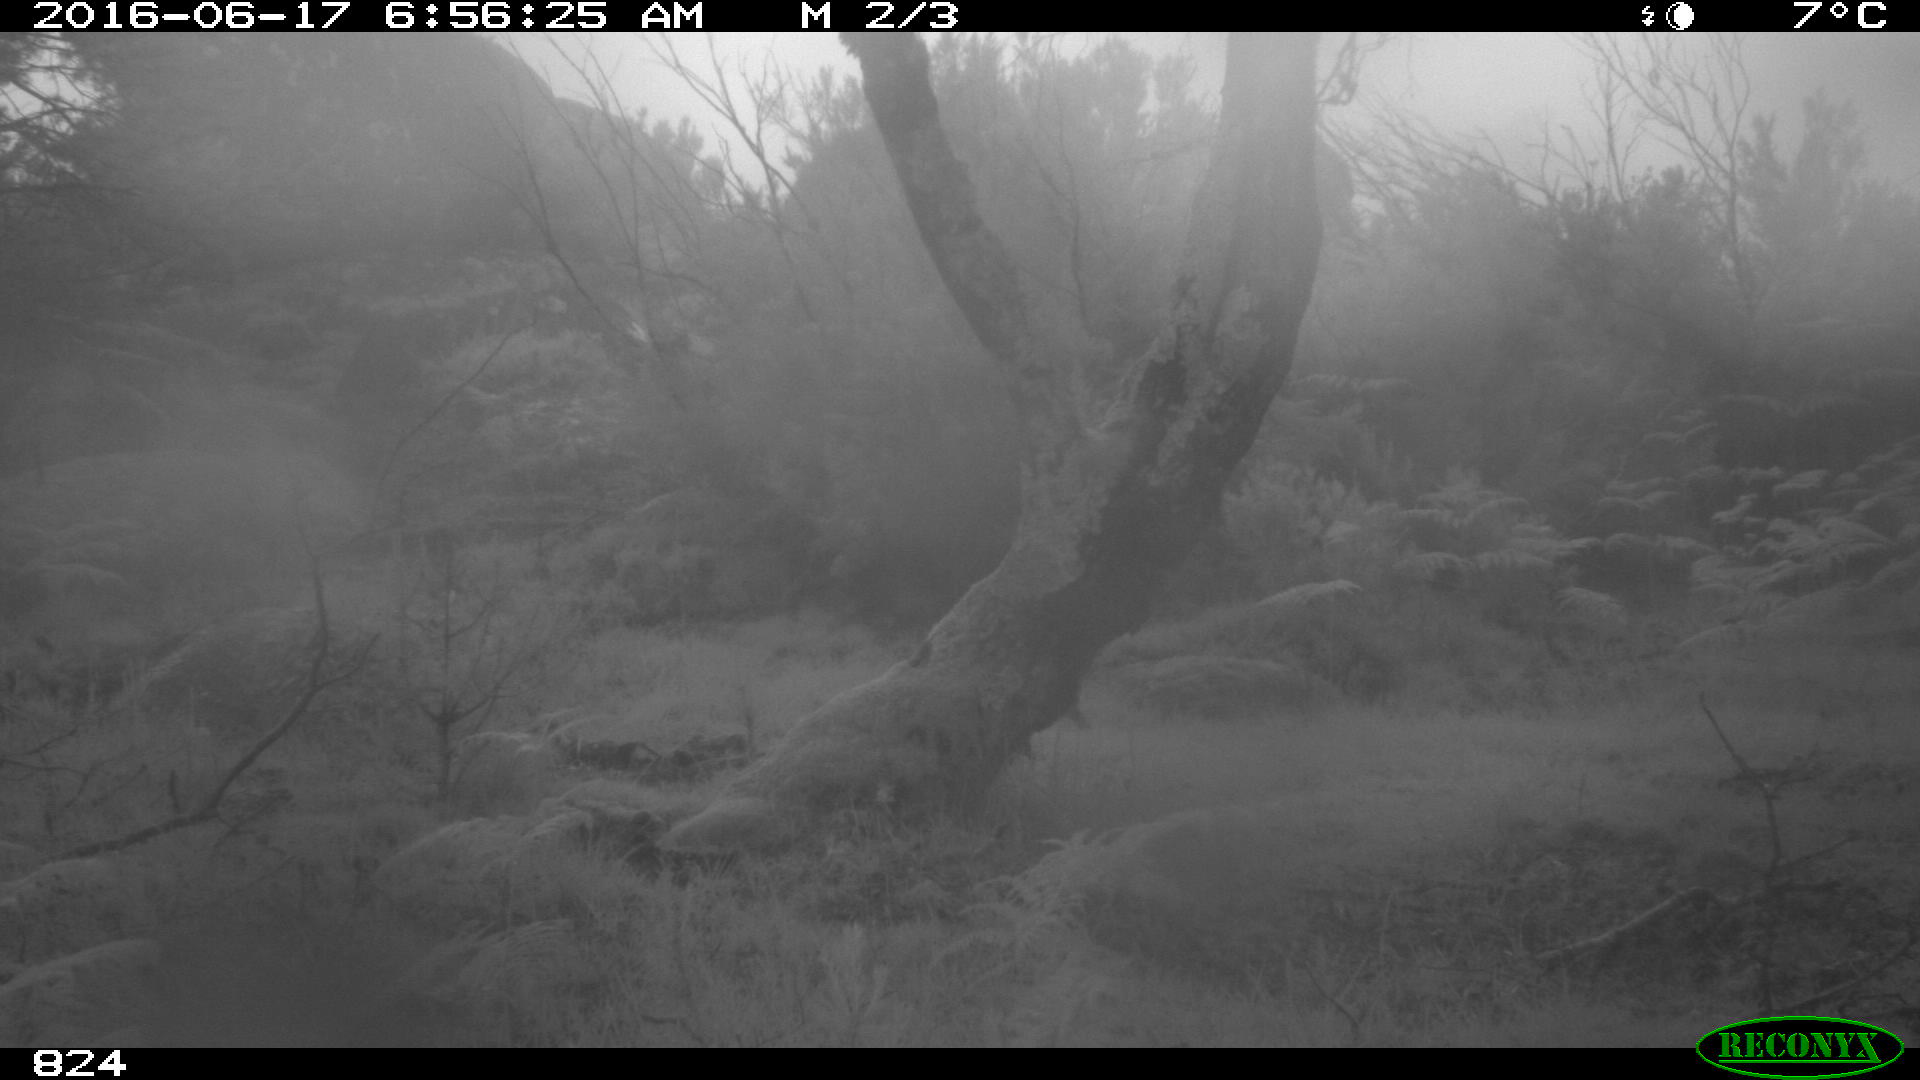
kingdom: Animalia
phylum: Chordata
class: Mammalia
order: Artiodactyla
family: Suidae
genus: Sus
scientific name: Sus scrofa
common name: Wild boar
